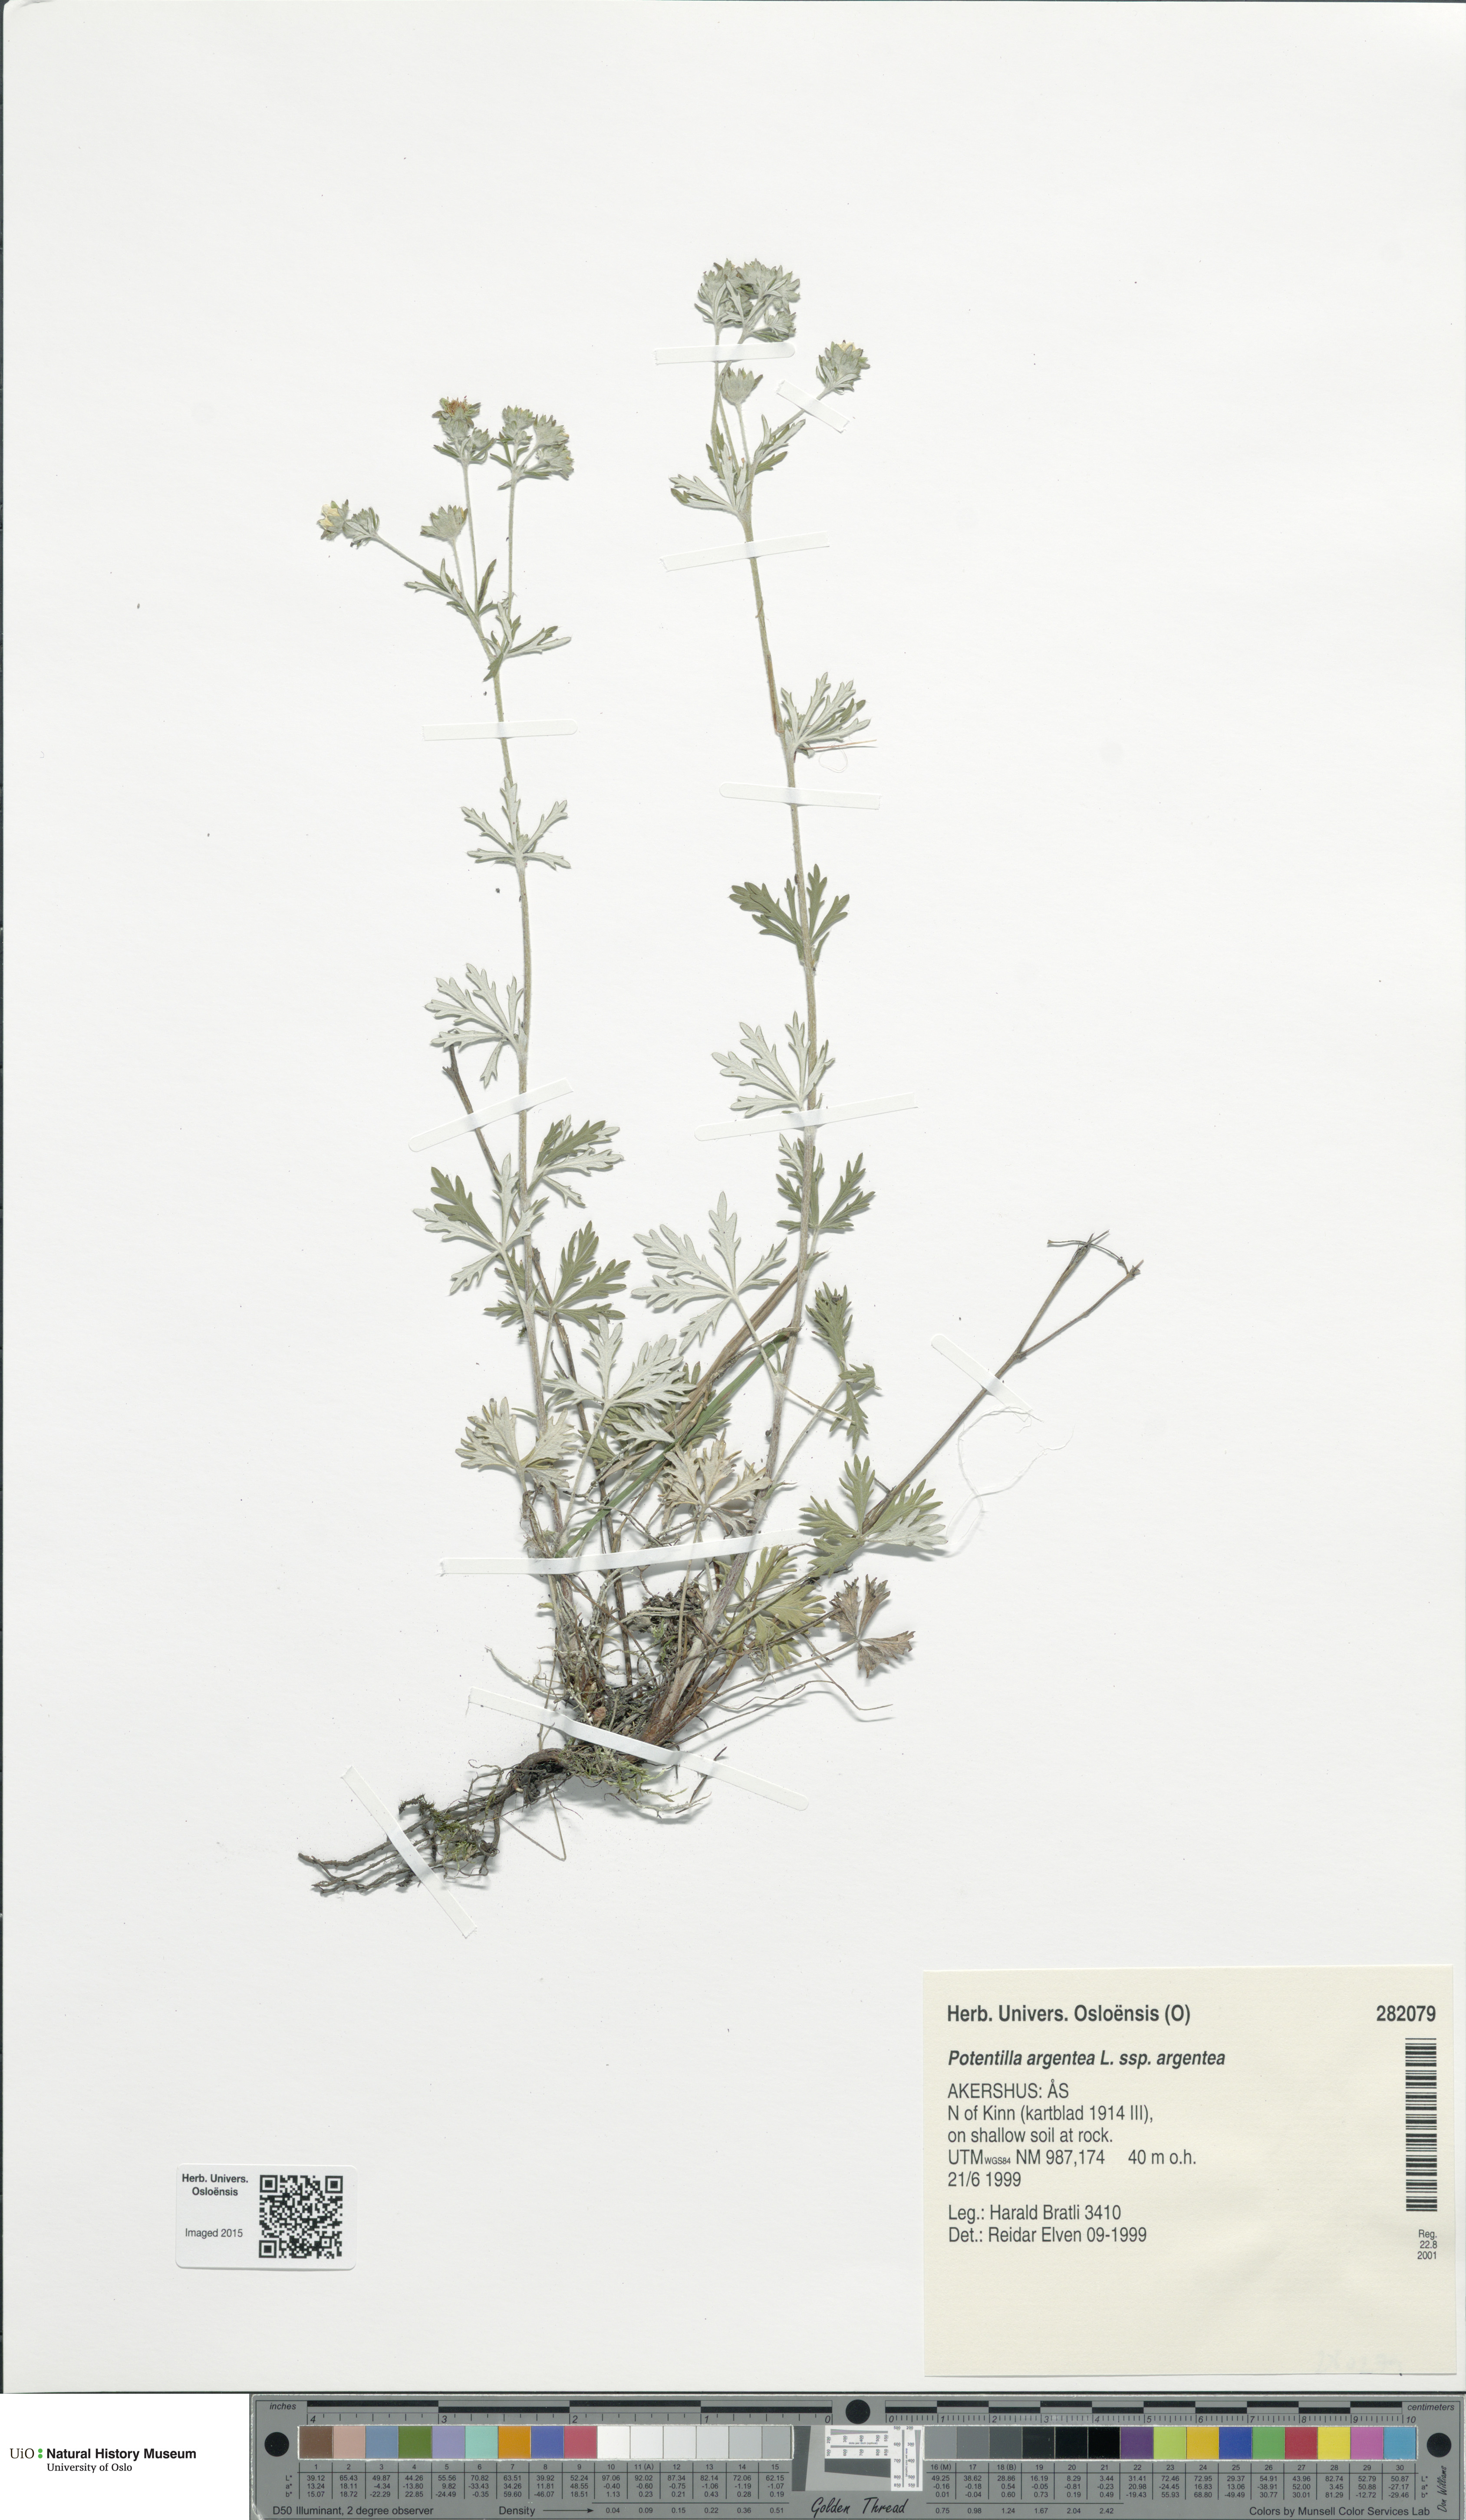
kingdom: Plantae
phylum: Tracheophyta
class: Magnoliopsida
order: Rosales
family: Rosaceae
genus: Potentilla
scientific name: Potentilla argentea
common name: Hoary cinquefoil
